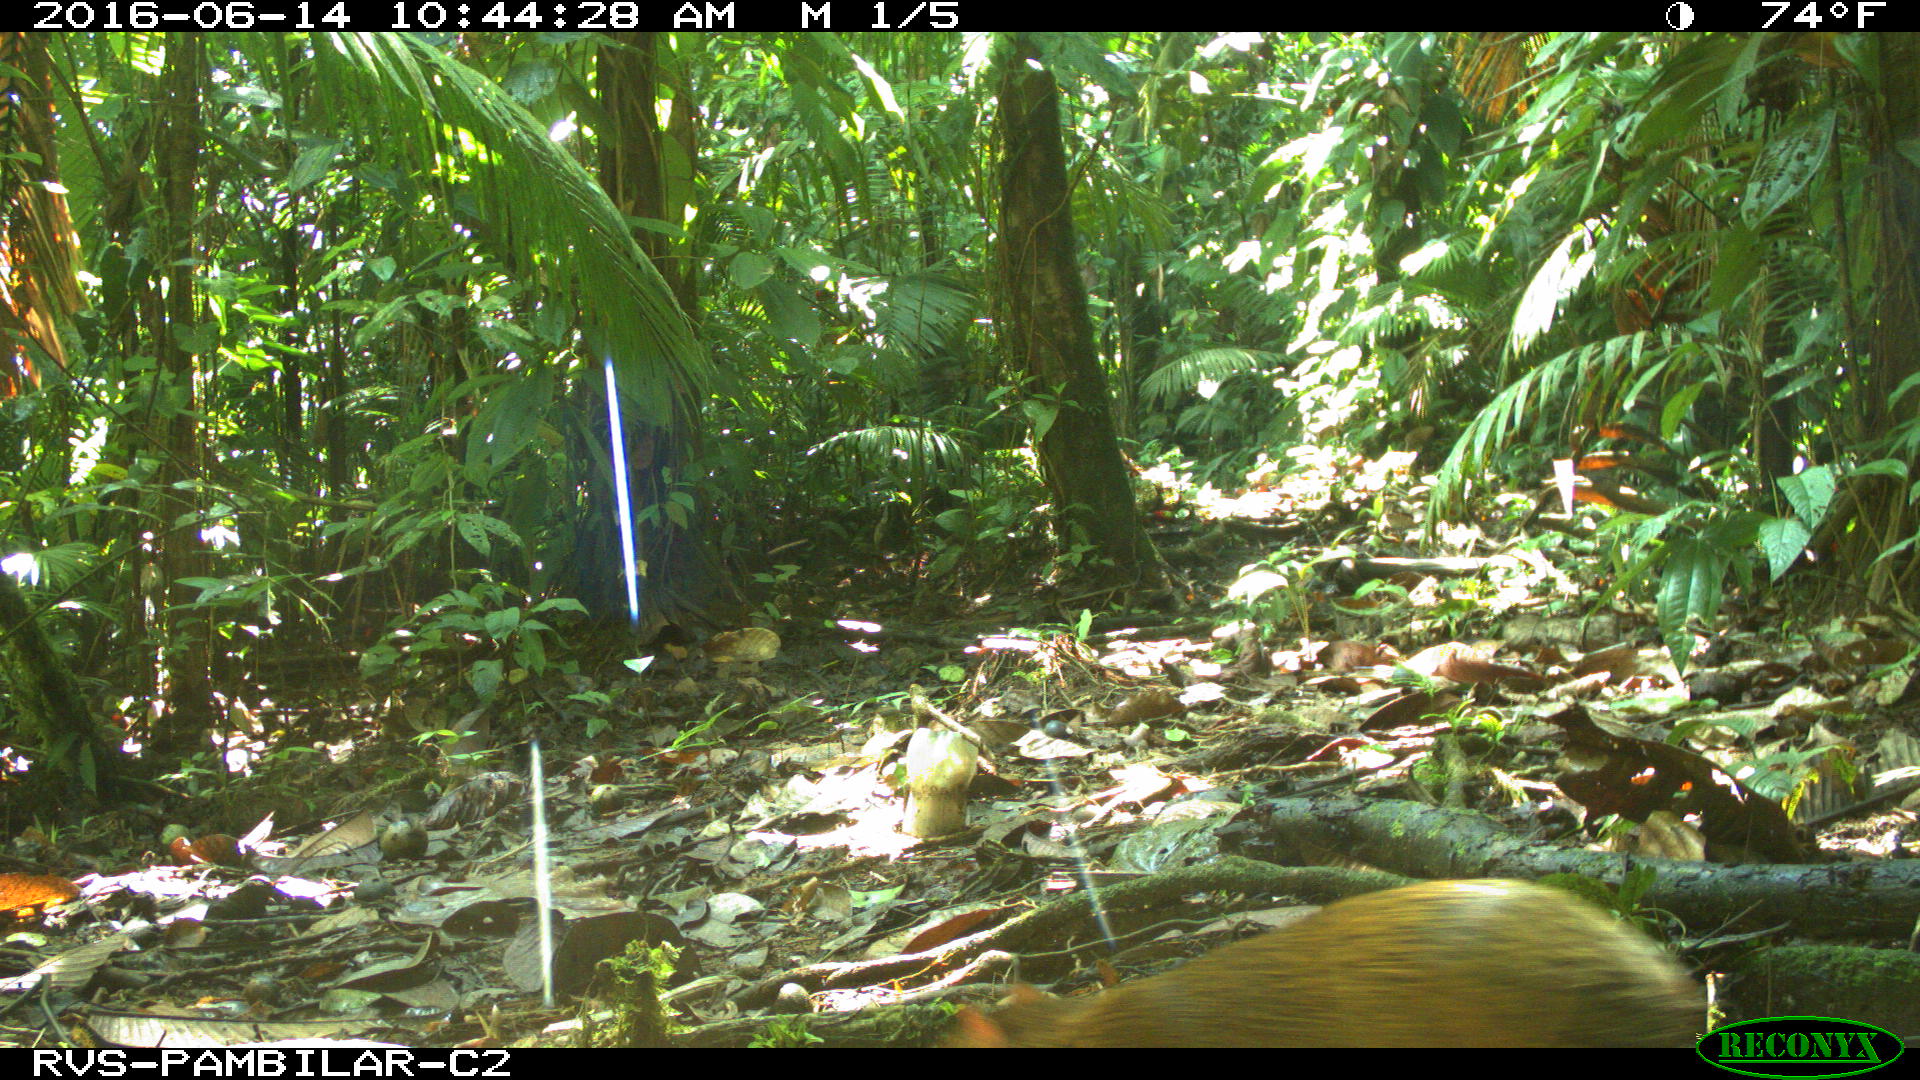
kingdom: Animalia
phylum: Chordata
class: Mammalia
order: Rodentia
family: Dasyproctidae
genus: Dasyprocta
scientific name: Dasyprocta punctata
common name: Central american agouti
